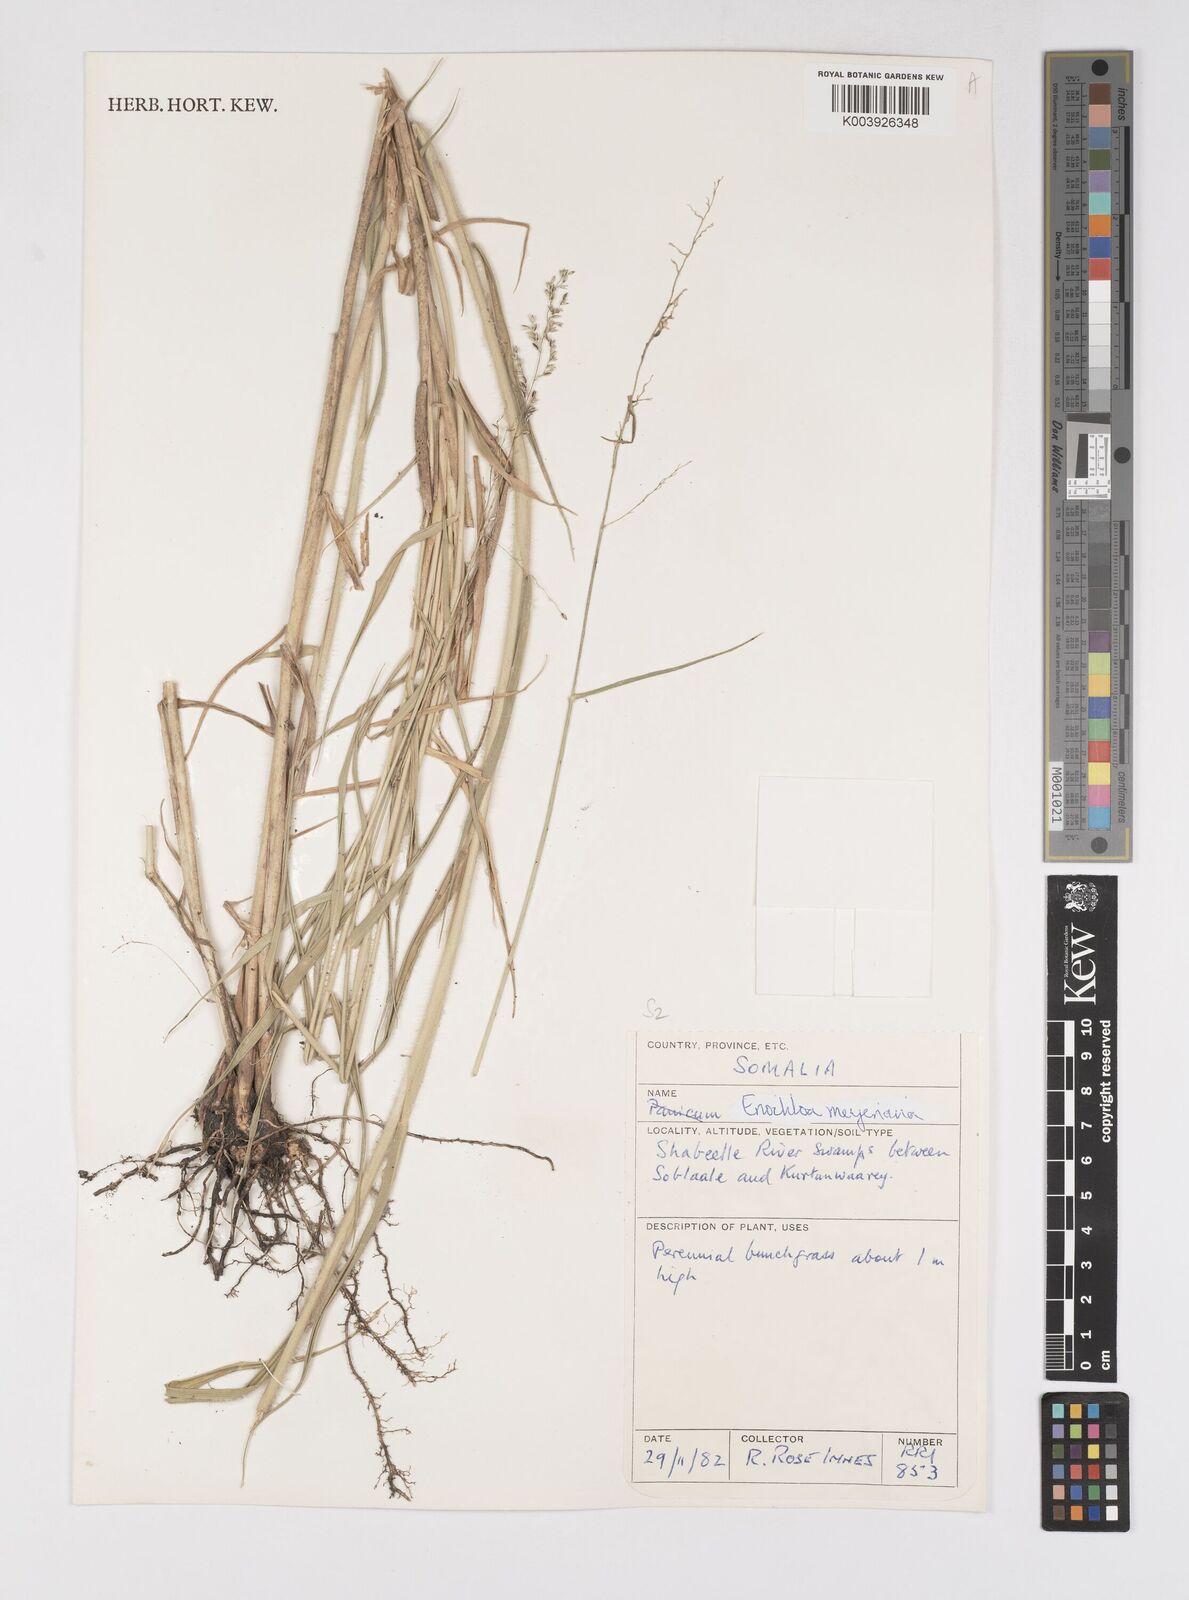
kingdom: Plantae
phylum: Tracheophyta
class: Liliopsida
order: Poales
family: Poaceae
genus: Eriochloa
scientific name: Eriochloa meyeriana
